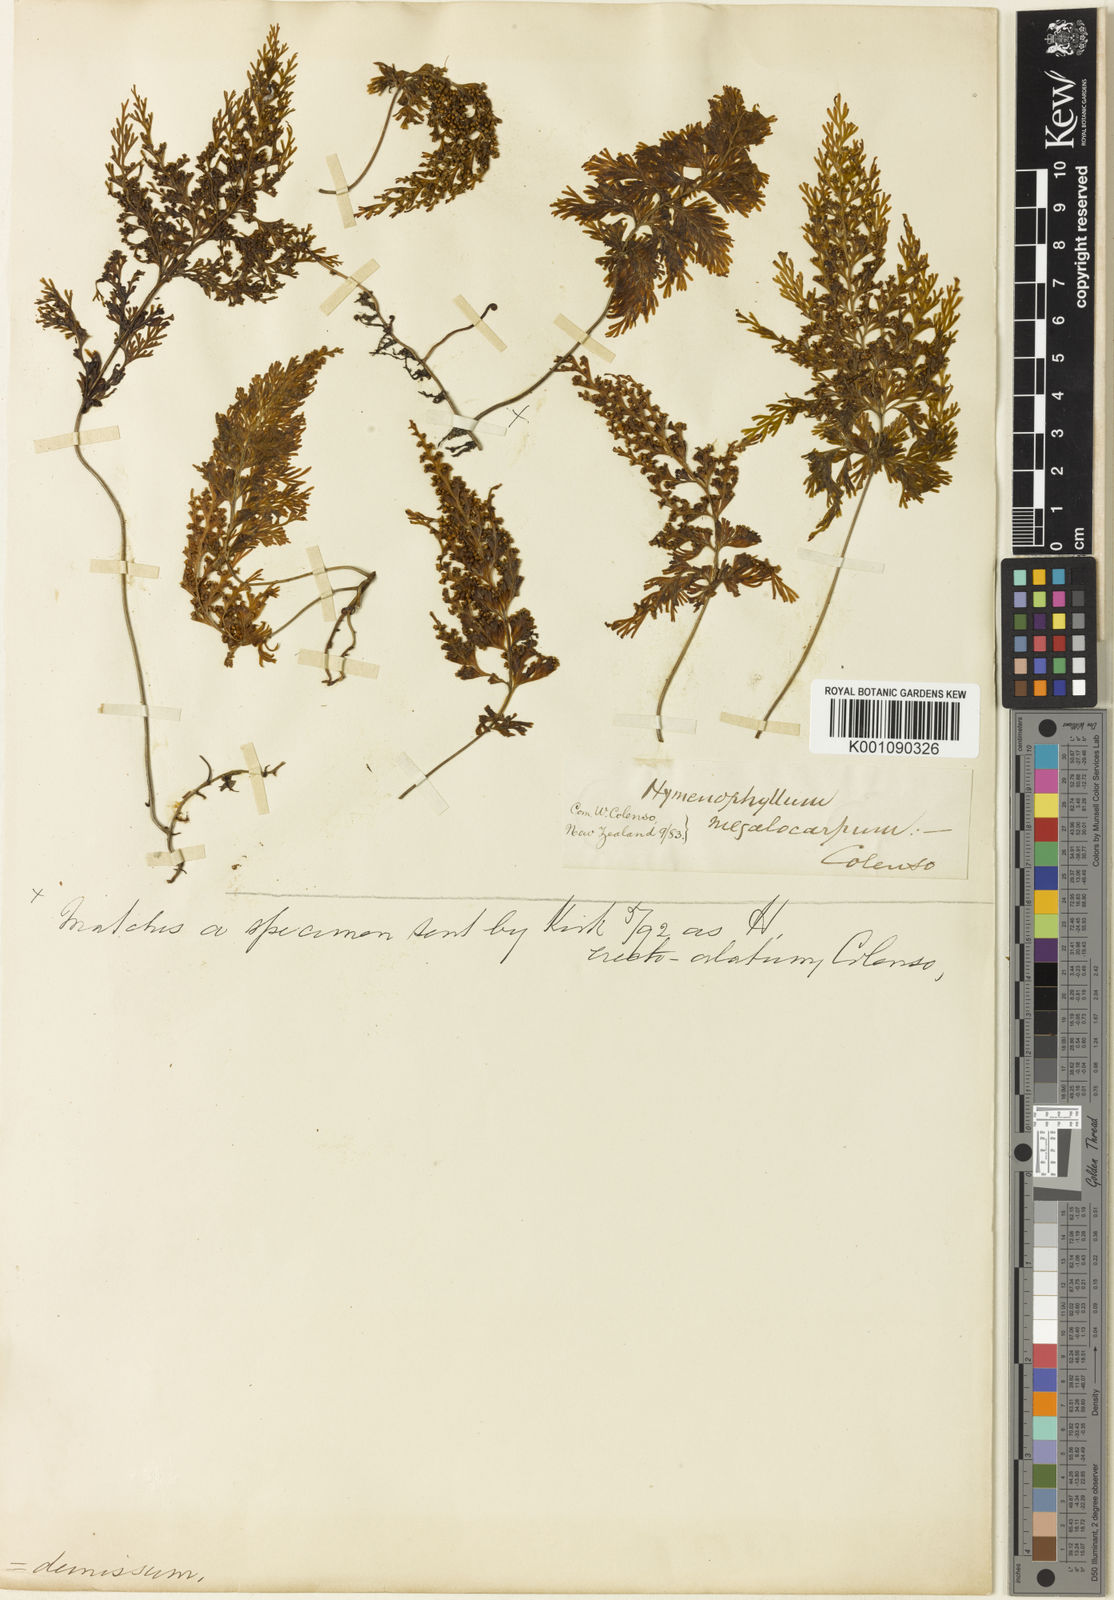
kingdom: Plantae
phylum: Tracheophyta
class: Polypodiopsida
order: Hymenophyllales
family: Hymenophyllaceae
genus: Hymenophyllum
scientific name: Hymenophyllum demissum
